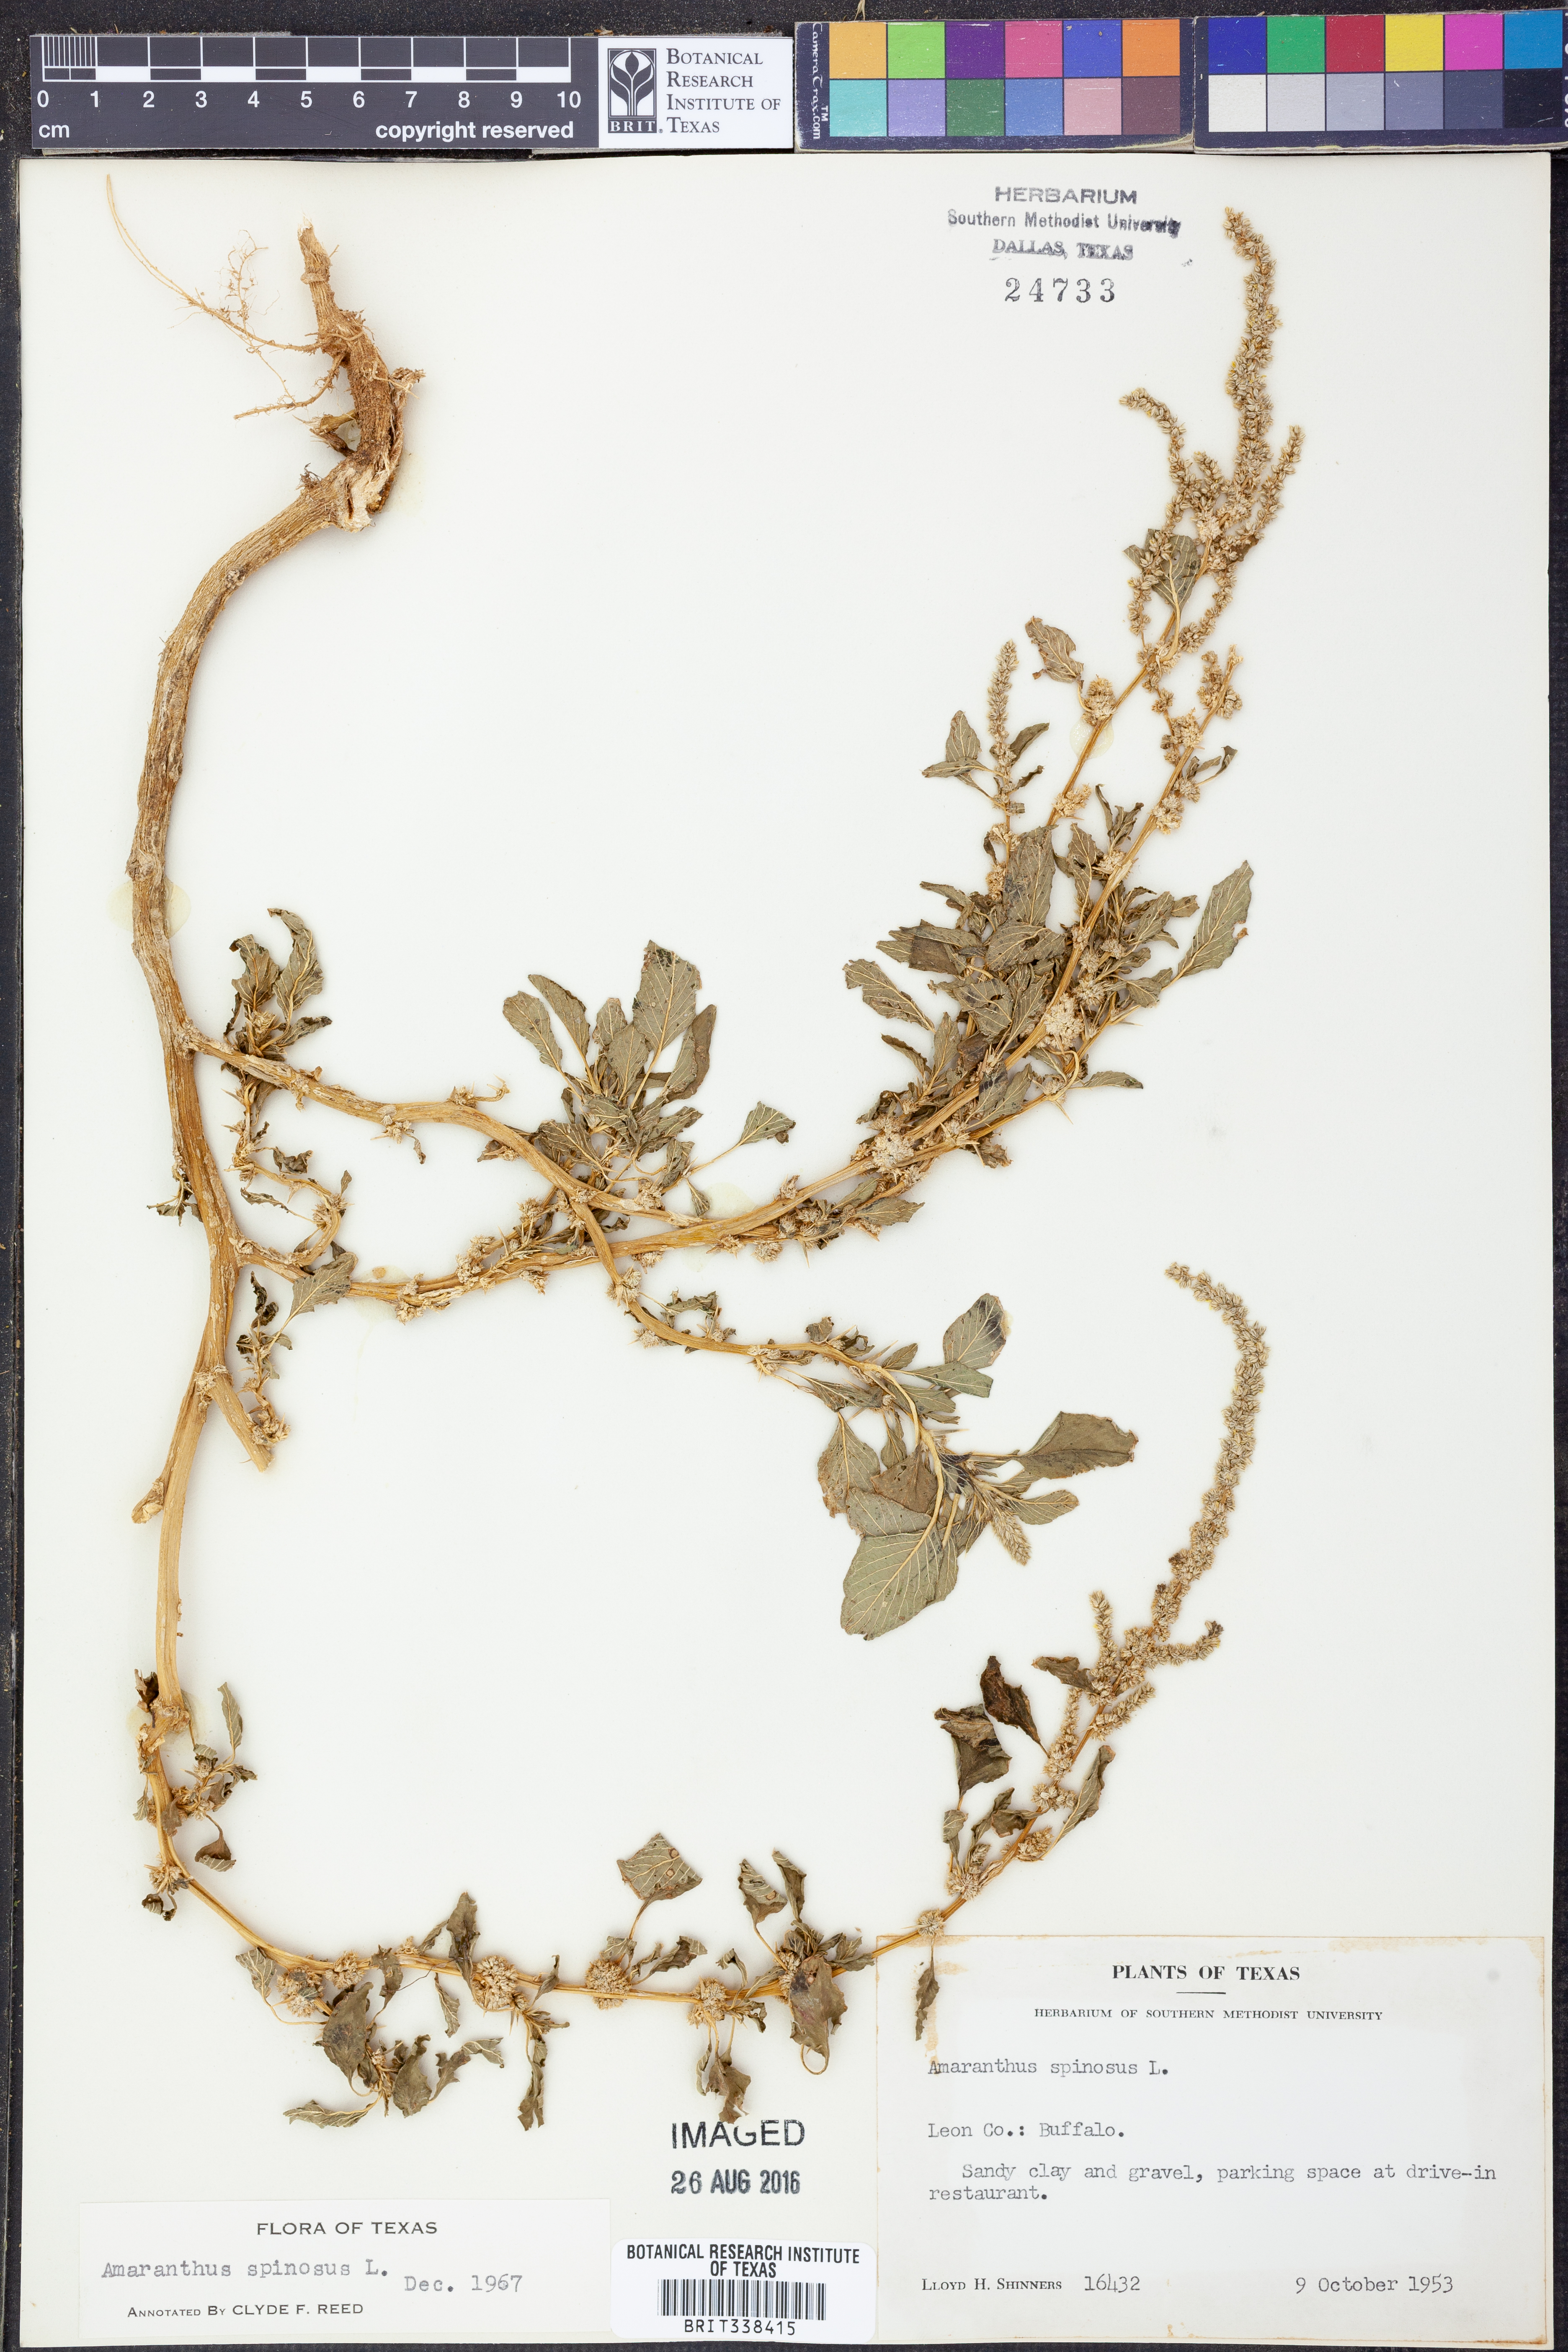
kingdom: Plantae
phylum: Tracheophyta
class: Magnoliopsida
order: Caryophyllales
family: Amaranthaceae
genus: Amaranthus
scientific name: Amaranthus spinosus
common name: Spiny amaranth
